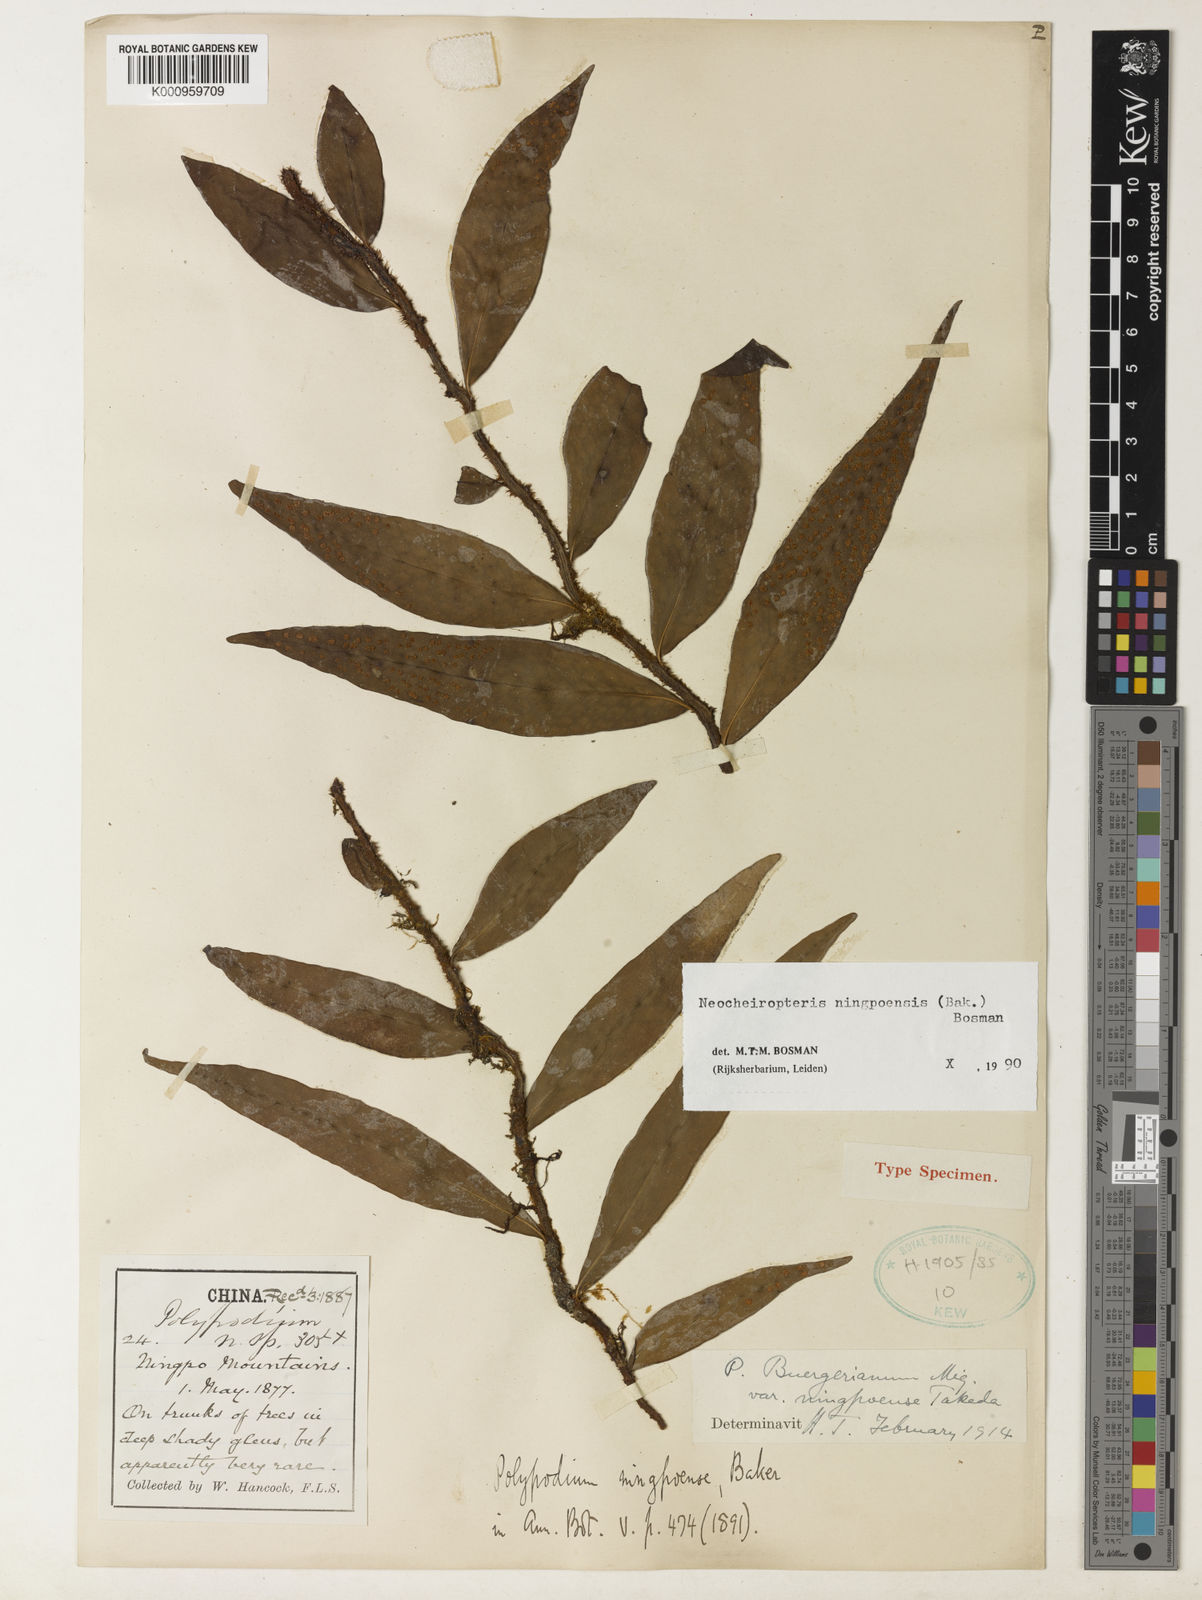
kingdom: Plantae
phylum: Tracheophyta
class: Polypodiopsida
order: Polypodiales
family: Polypodiaceae
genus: Lepisorus
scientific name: Lepisorus buergerianus
